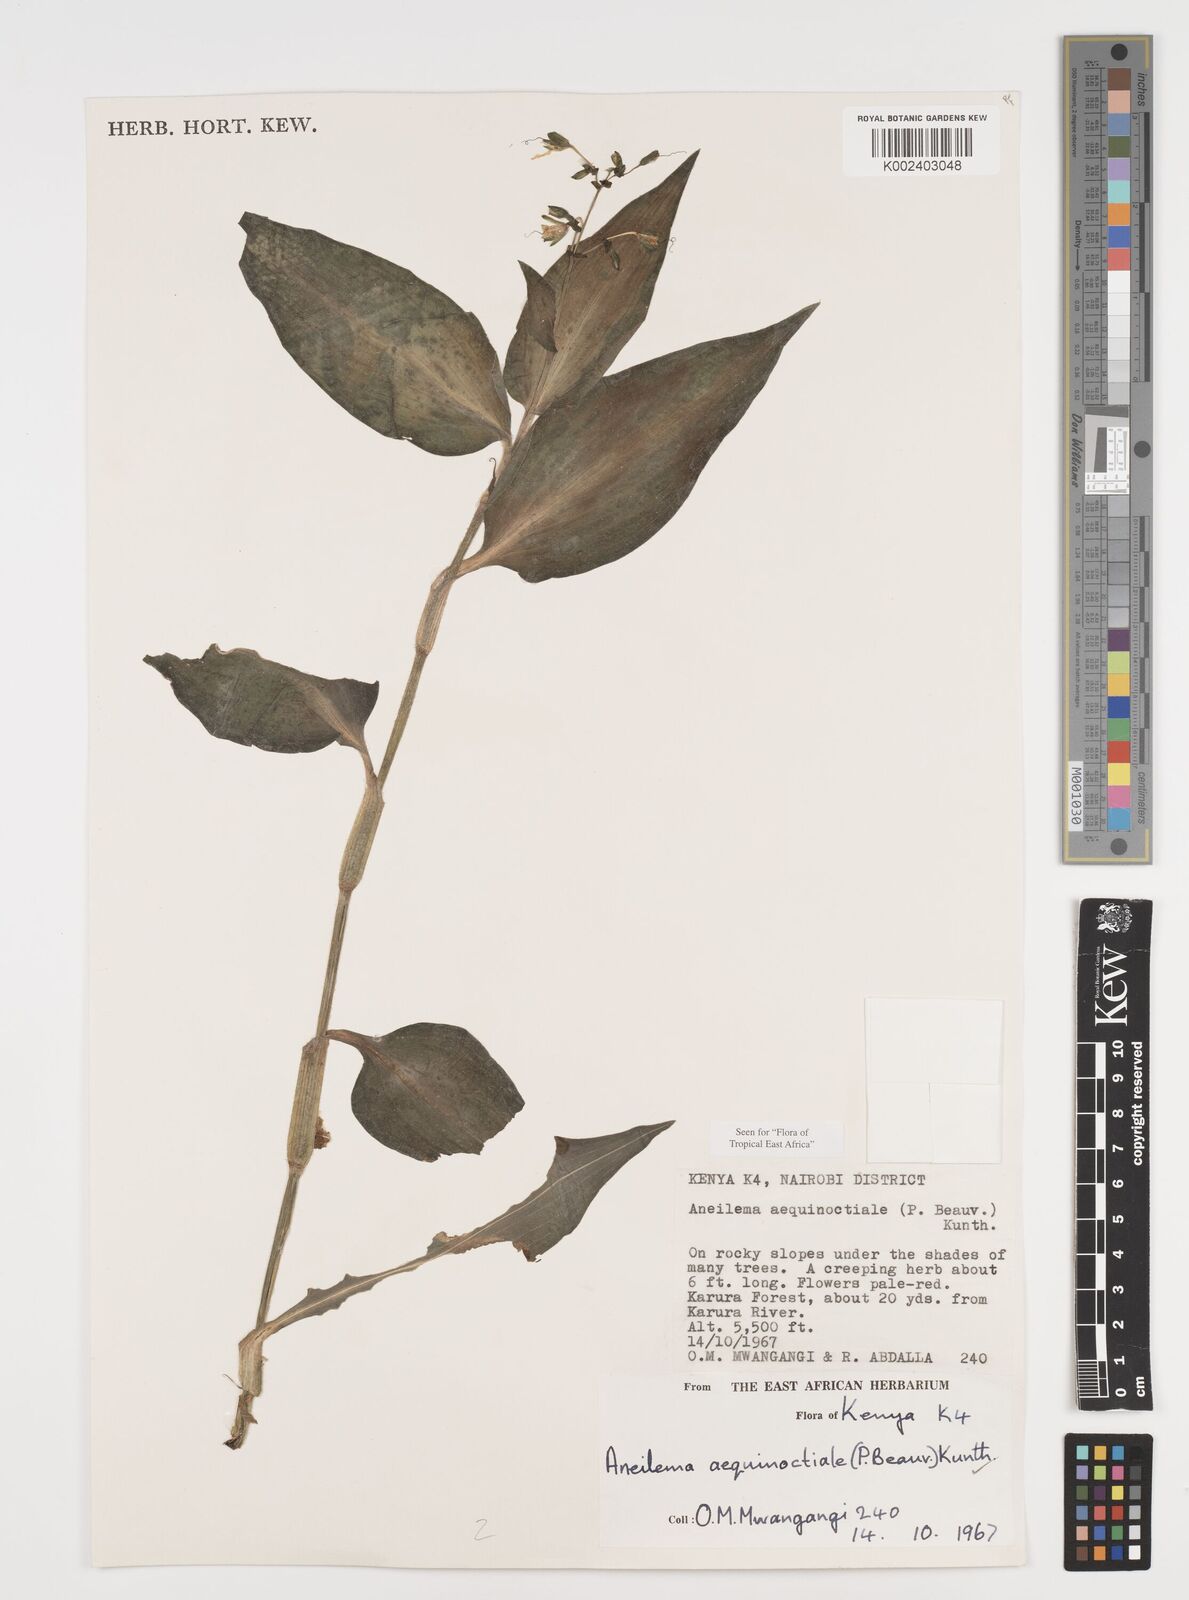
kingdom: Plantae
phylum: Tracheophyta
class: Liliopsida
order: Commelinales
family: Commelinaceae
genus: Aneilema
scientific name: Aneilema aequinoctiale
